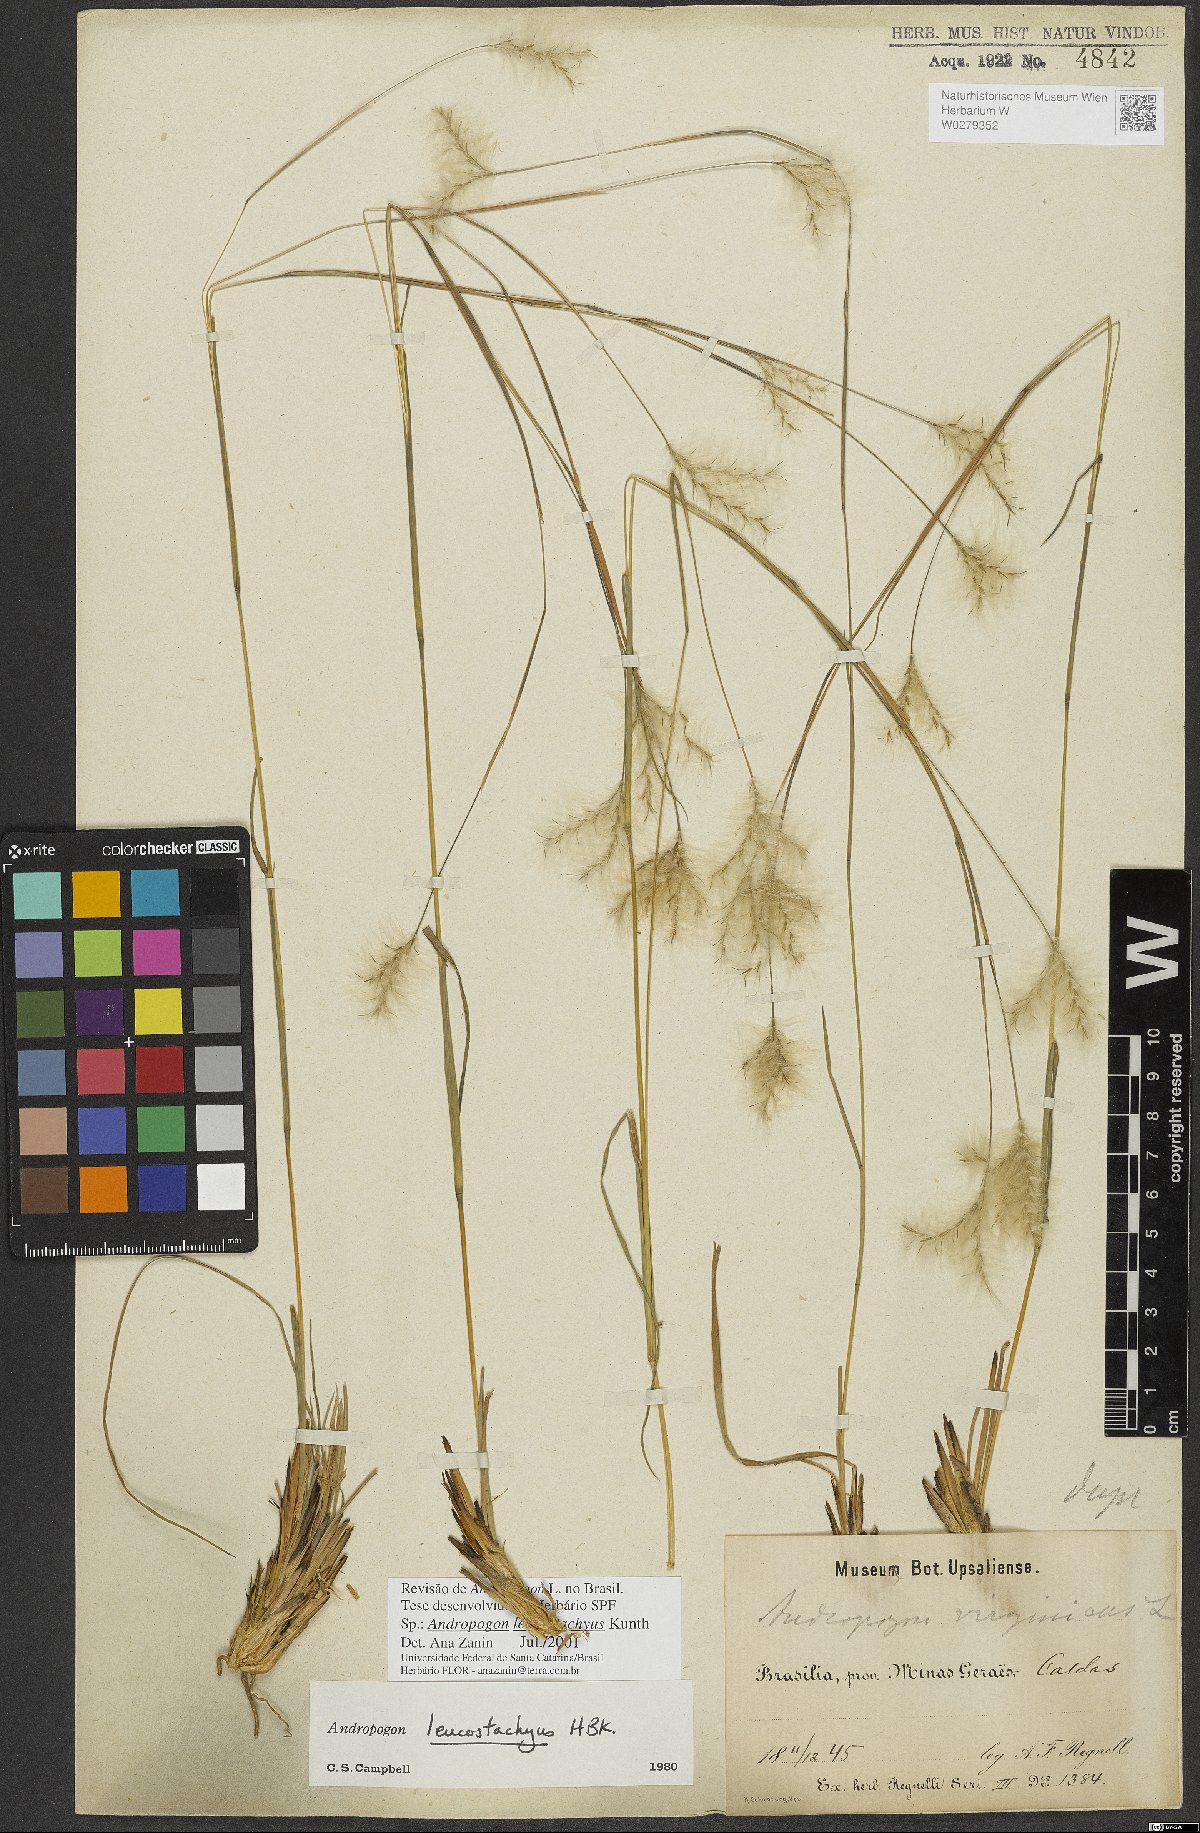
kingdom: Plantae
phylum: Tracheophyta
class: Liliopsida
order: Poales
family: Poaceae
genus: Andropogon
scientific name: Andropogon leucostachyus
